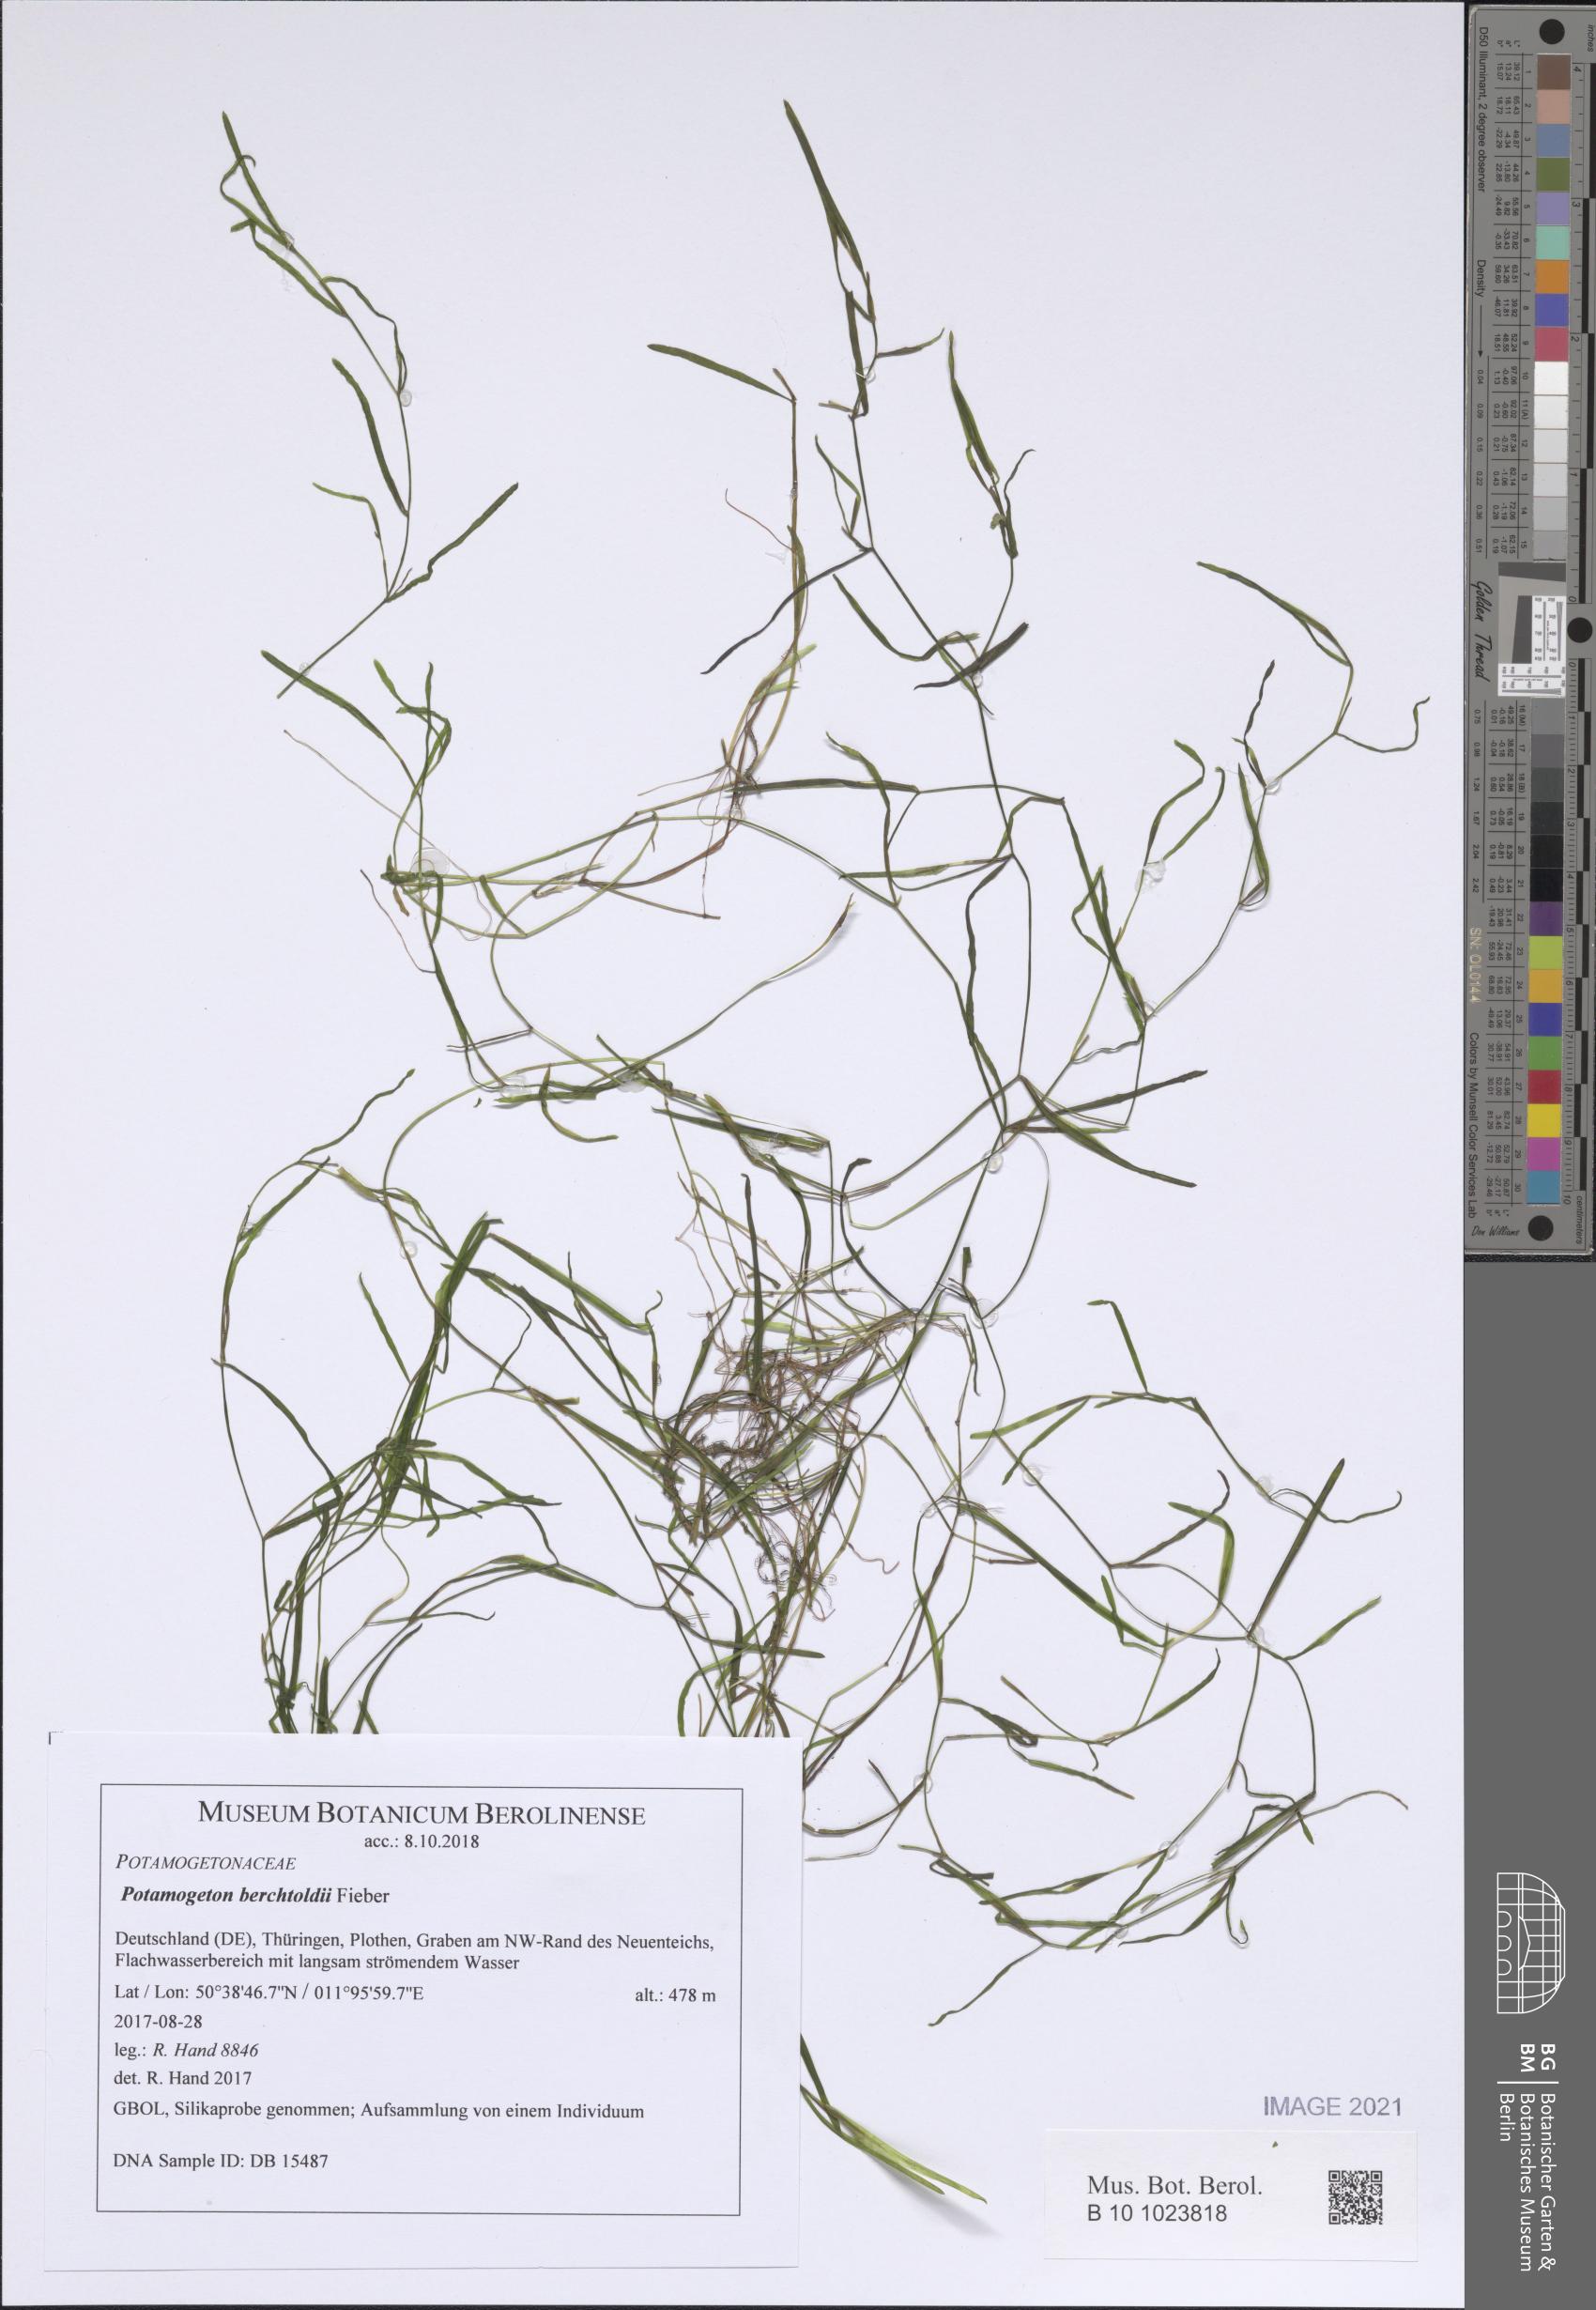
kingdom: Plantae
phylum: Tracheophyta
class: Liliopsida
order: Alismatales
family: Potamogetonaceae
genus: Potamogeton
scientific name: Potamogeton berchtoldii
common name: Small pondweed
